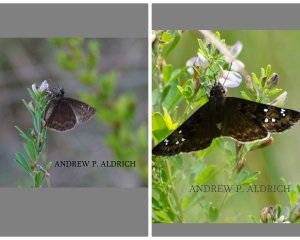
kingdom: Animalia
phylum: Arthropoda
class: Insecta
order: Lepidoptera
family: Hesperiidae
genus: Gesta
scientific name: Gesta
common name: Horace's Duskywing
